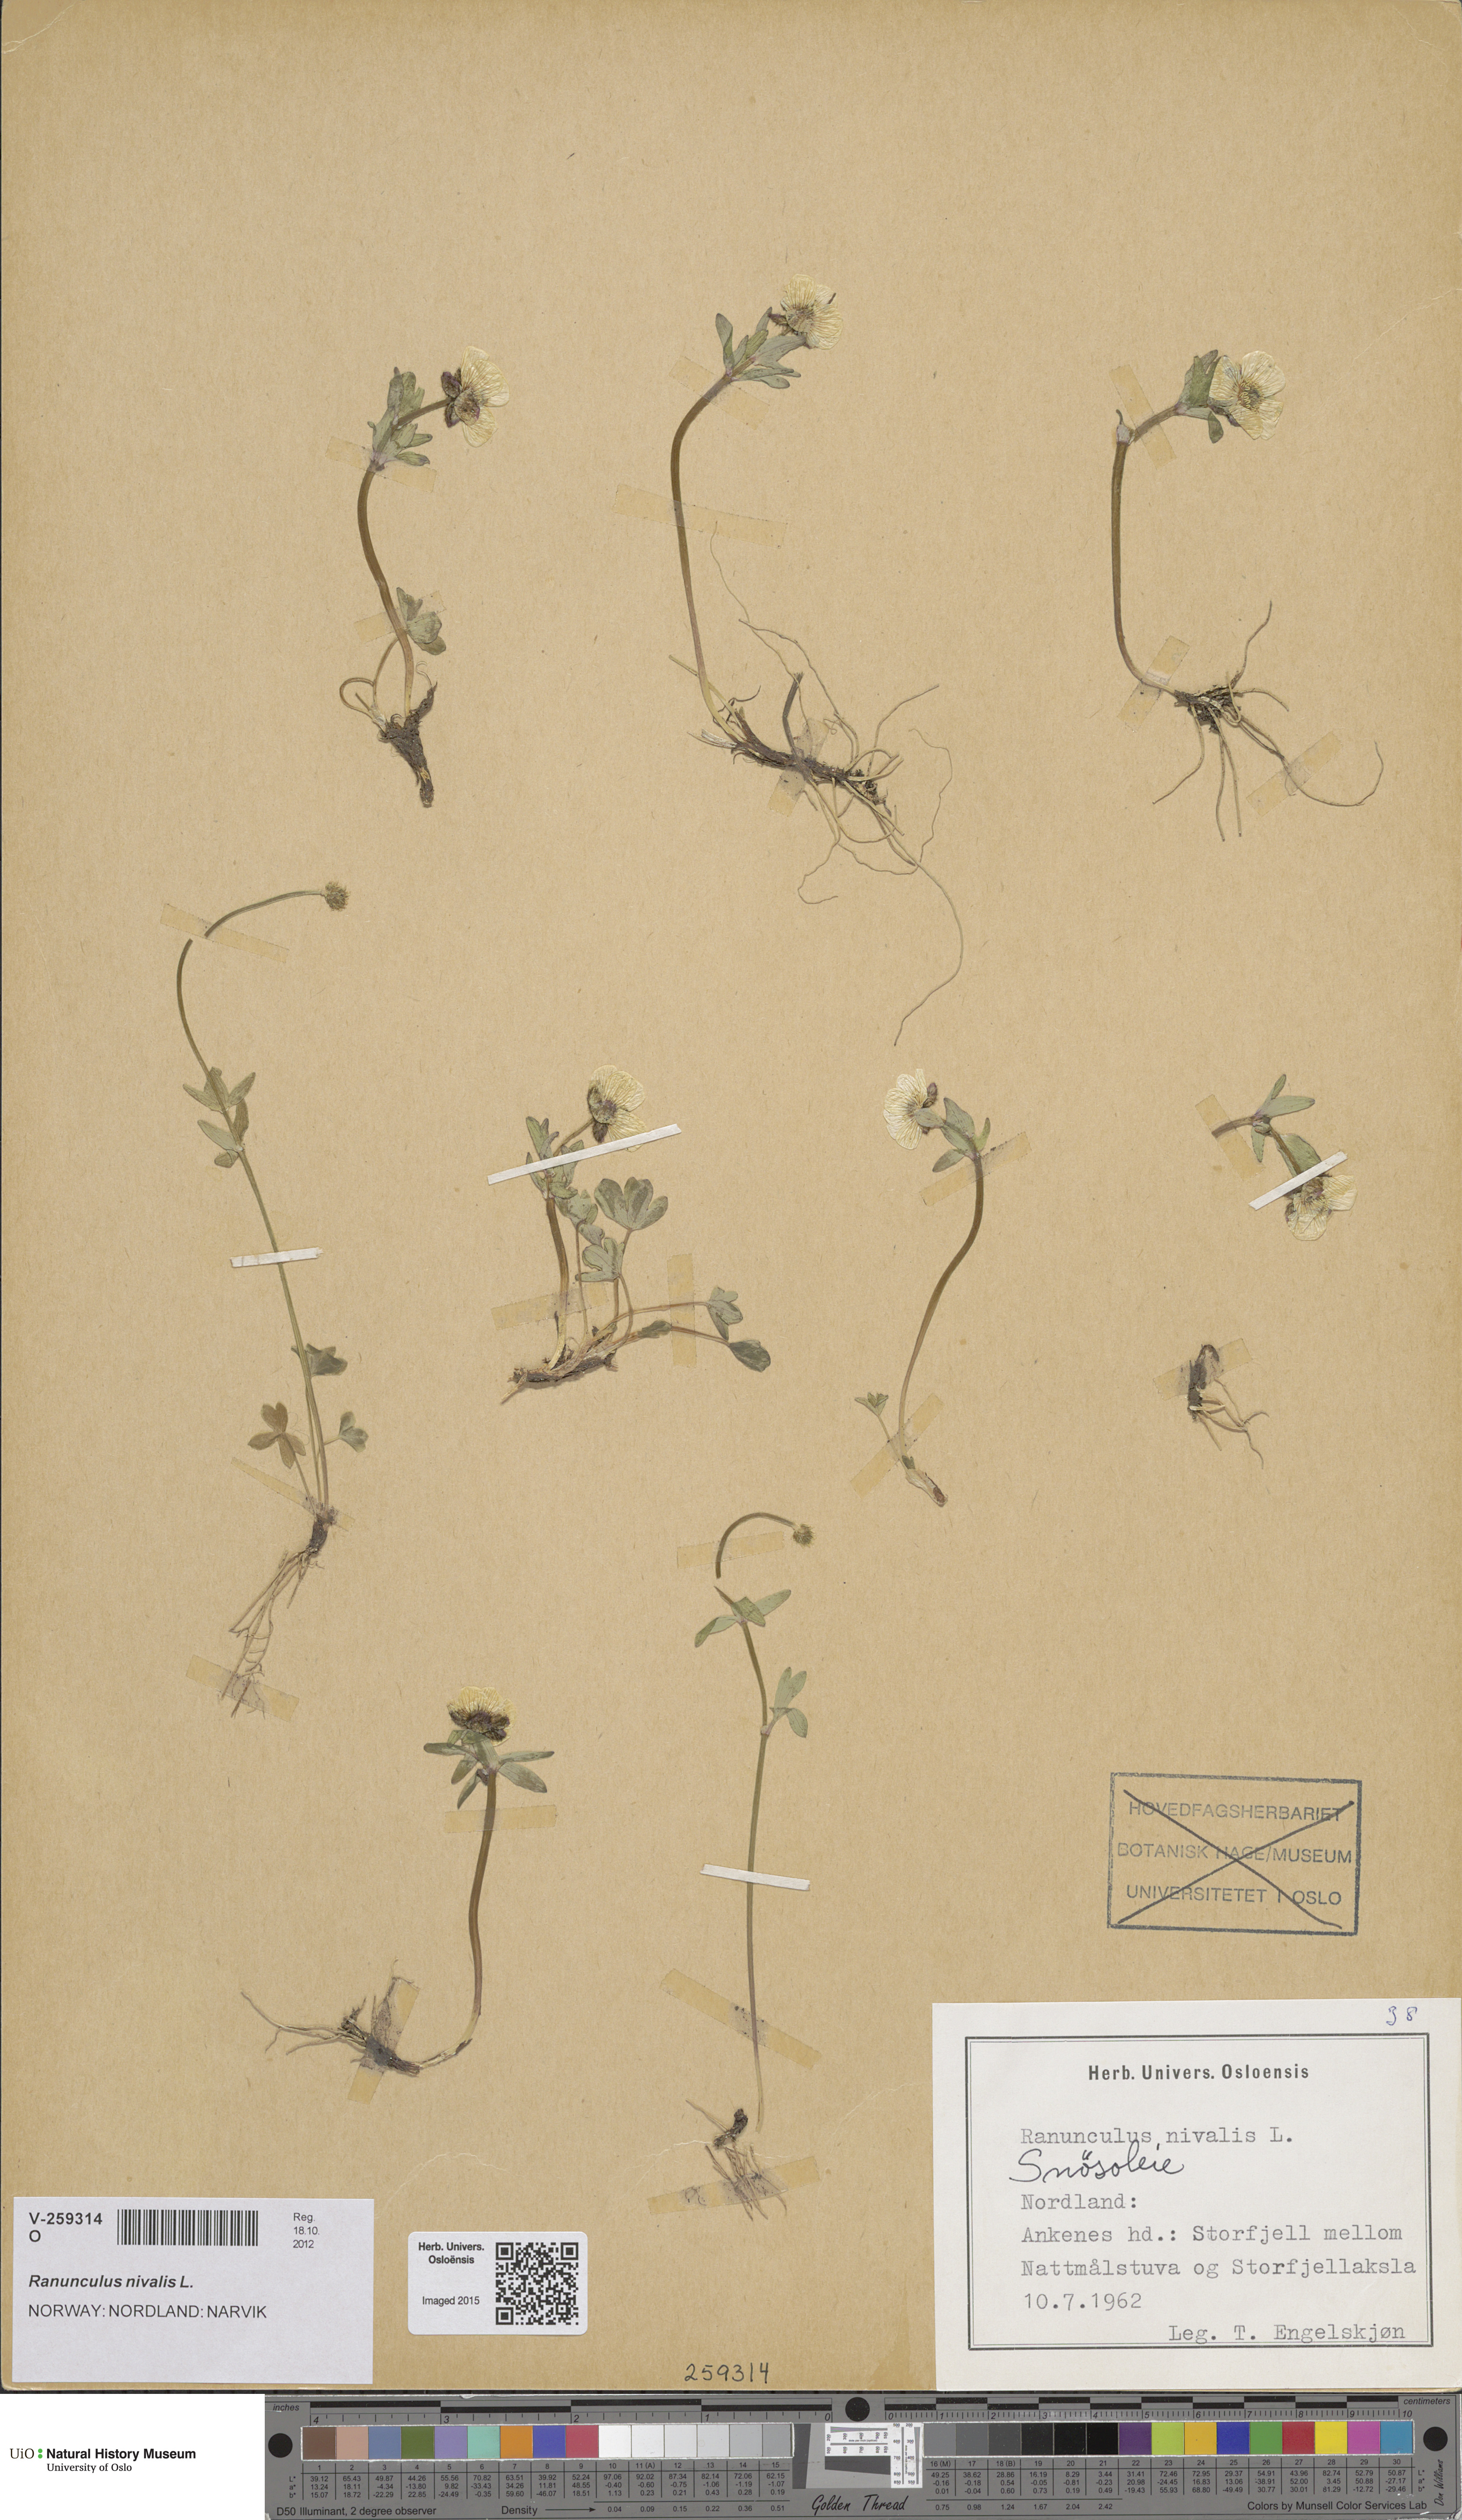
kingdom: Plantae
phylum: Tracheophyta
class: Magnoliopsida
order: Ranunculales
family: Ranunculaceae
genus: Ranunculus
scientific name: Ranunculus nivalis
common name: Snow buttercup
